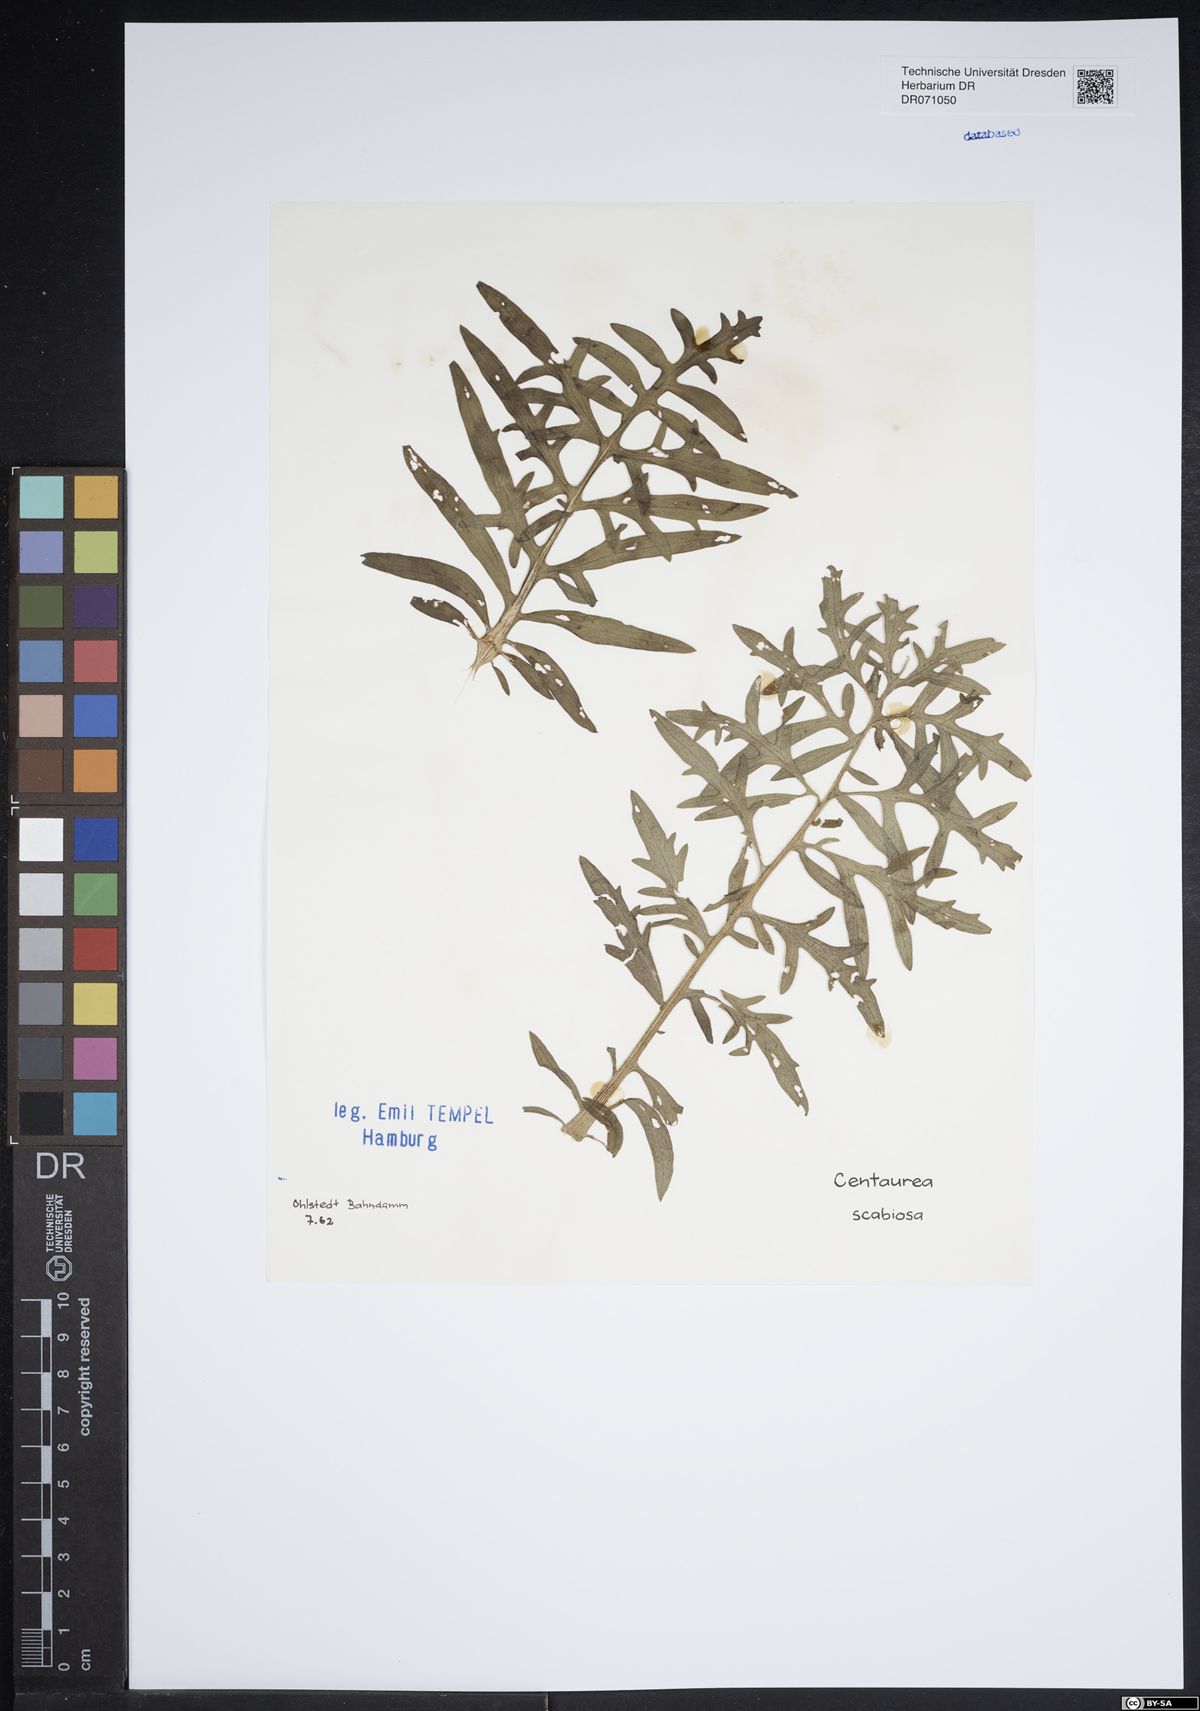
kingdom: Plantae
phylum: Tracheophyta
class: Magnoliopsida
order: Asterales
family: Asteraceae
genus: Centaurea
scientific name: Centaurea scabiosa
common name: Greater knapweed
